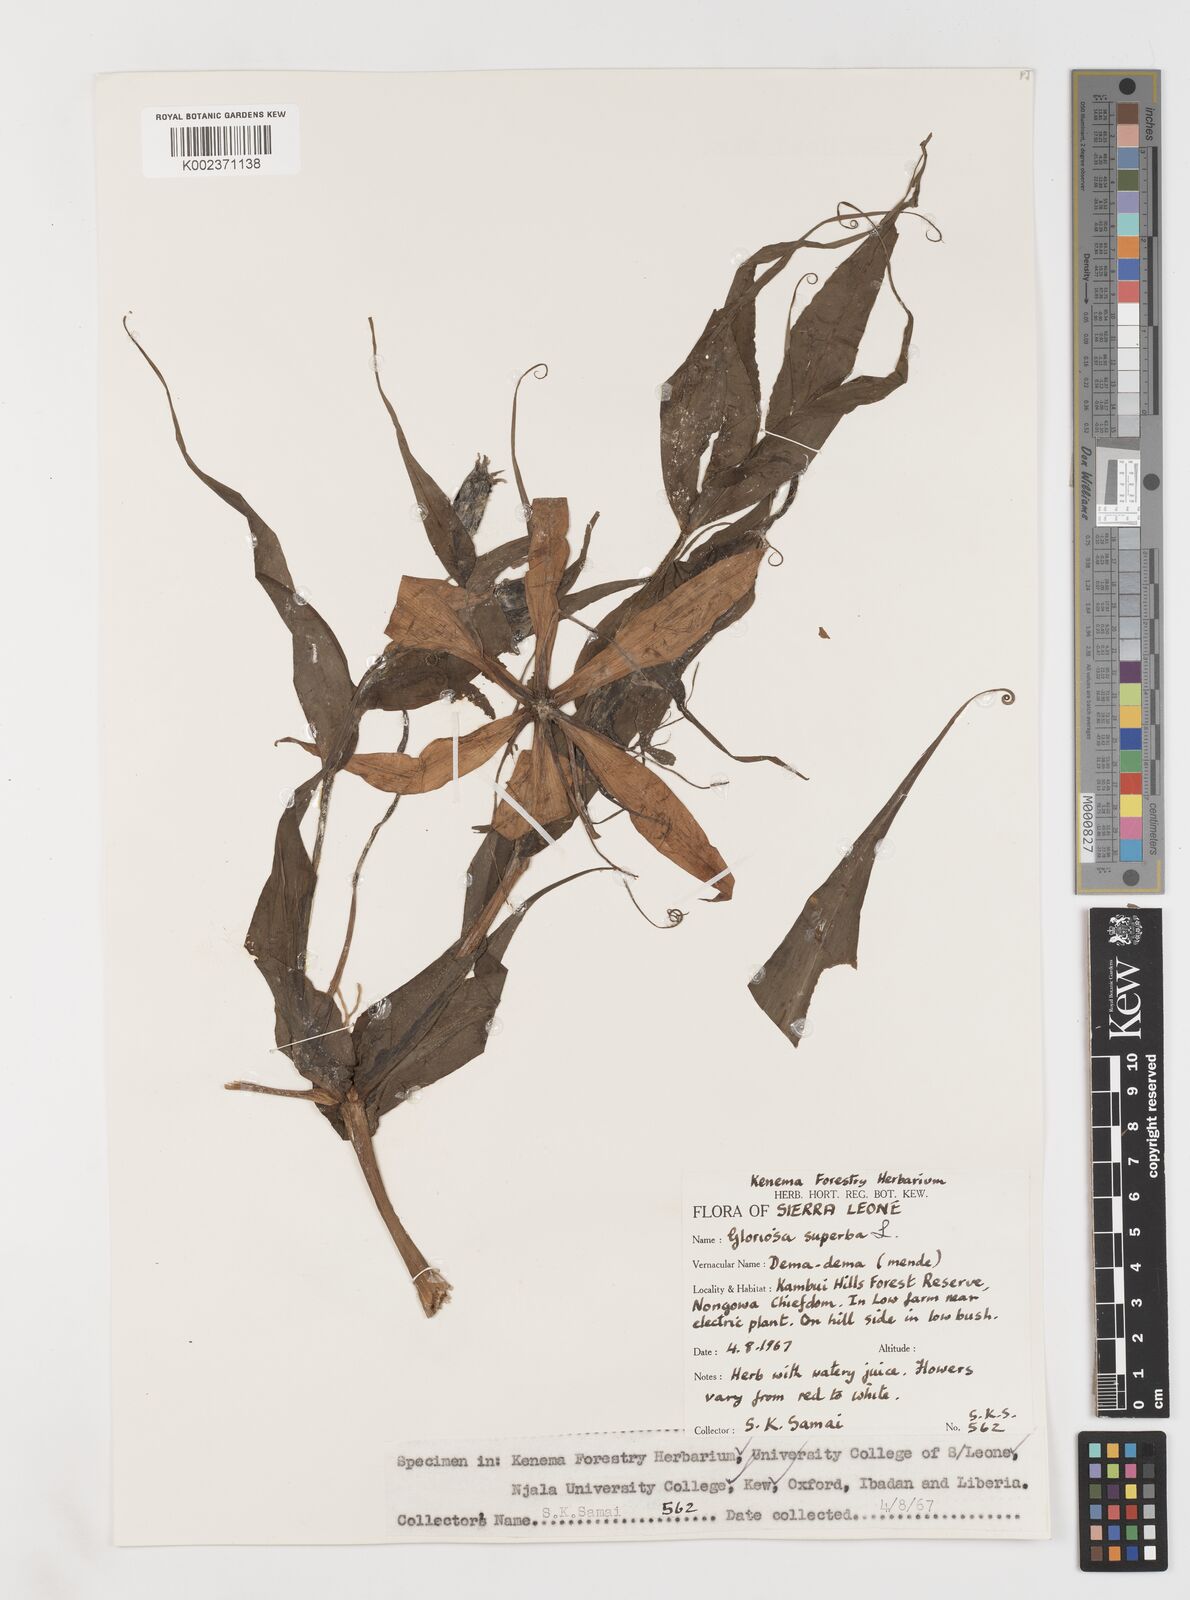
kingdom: Plantae
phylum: Tracheophyta
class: Liliopsida
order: Liliales
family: Colchicaceae
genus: Gloriosa
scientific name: Gloriosa simplex
